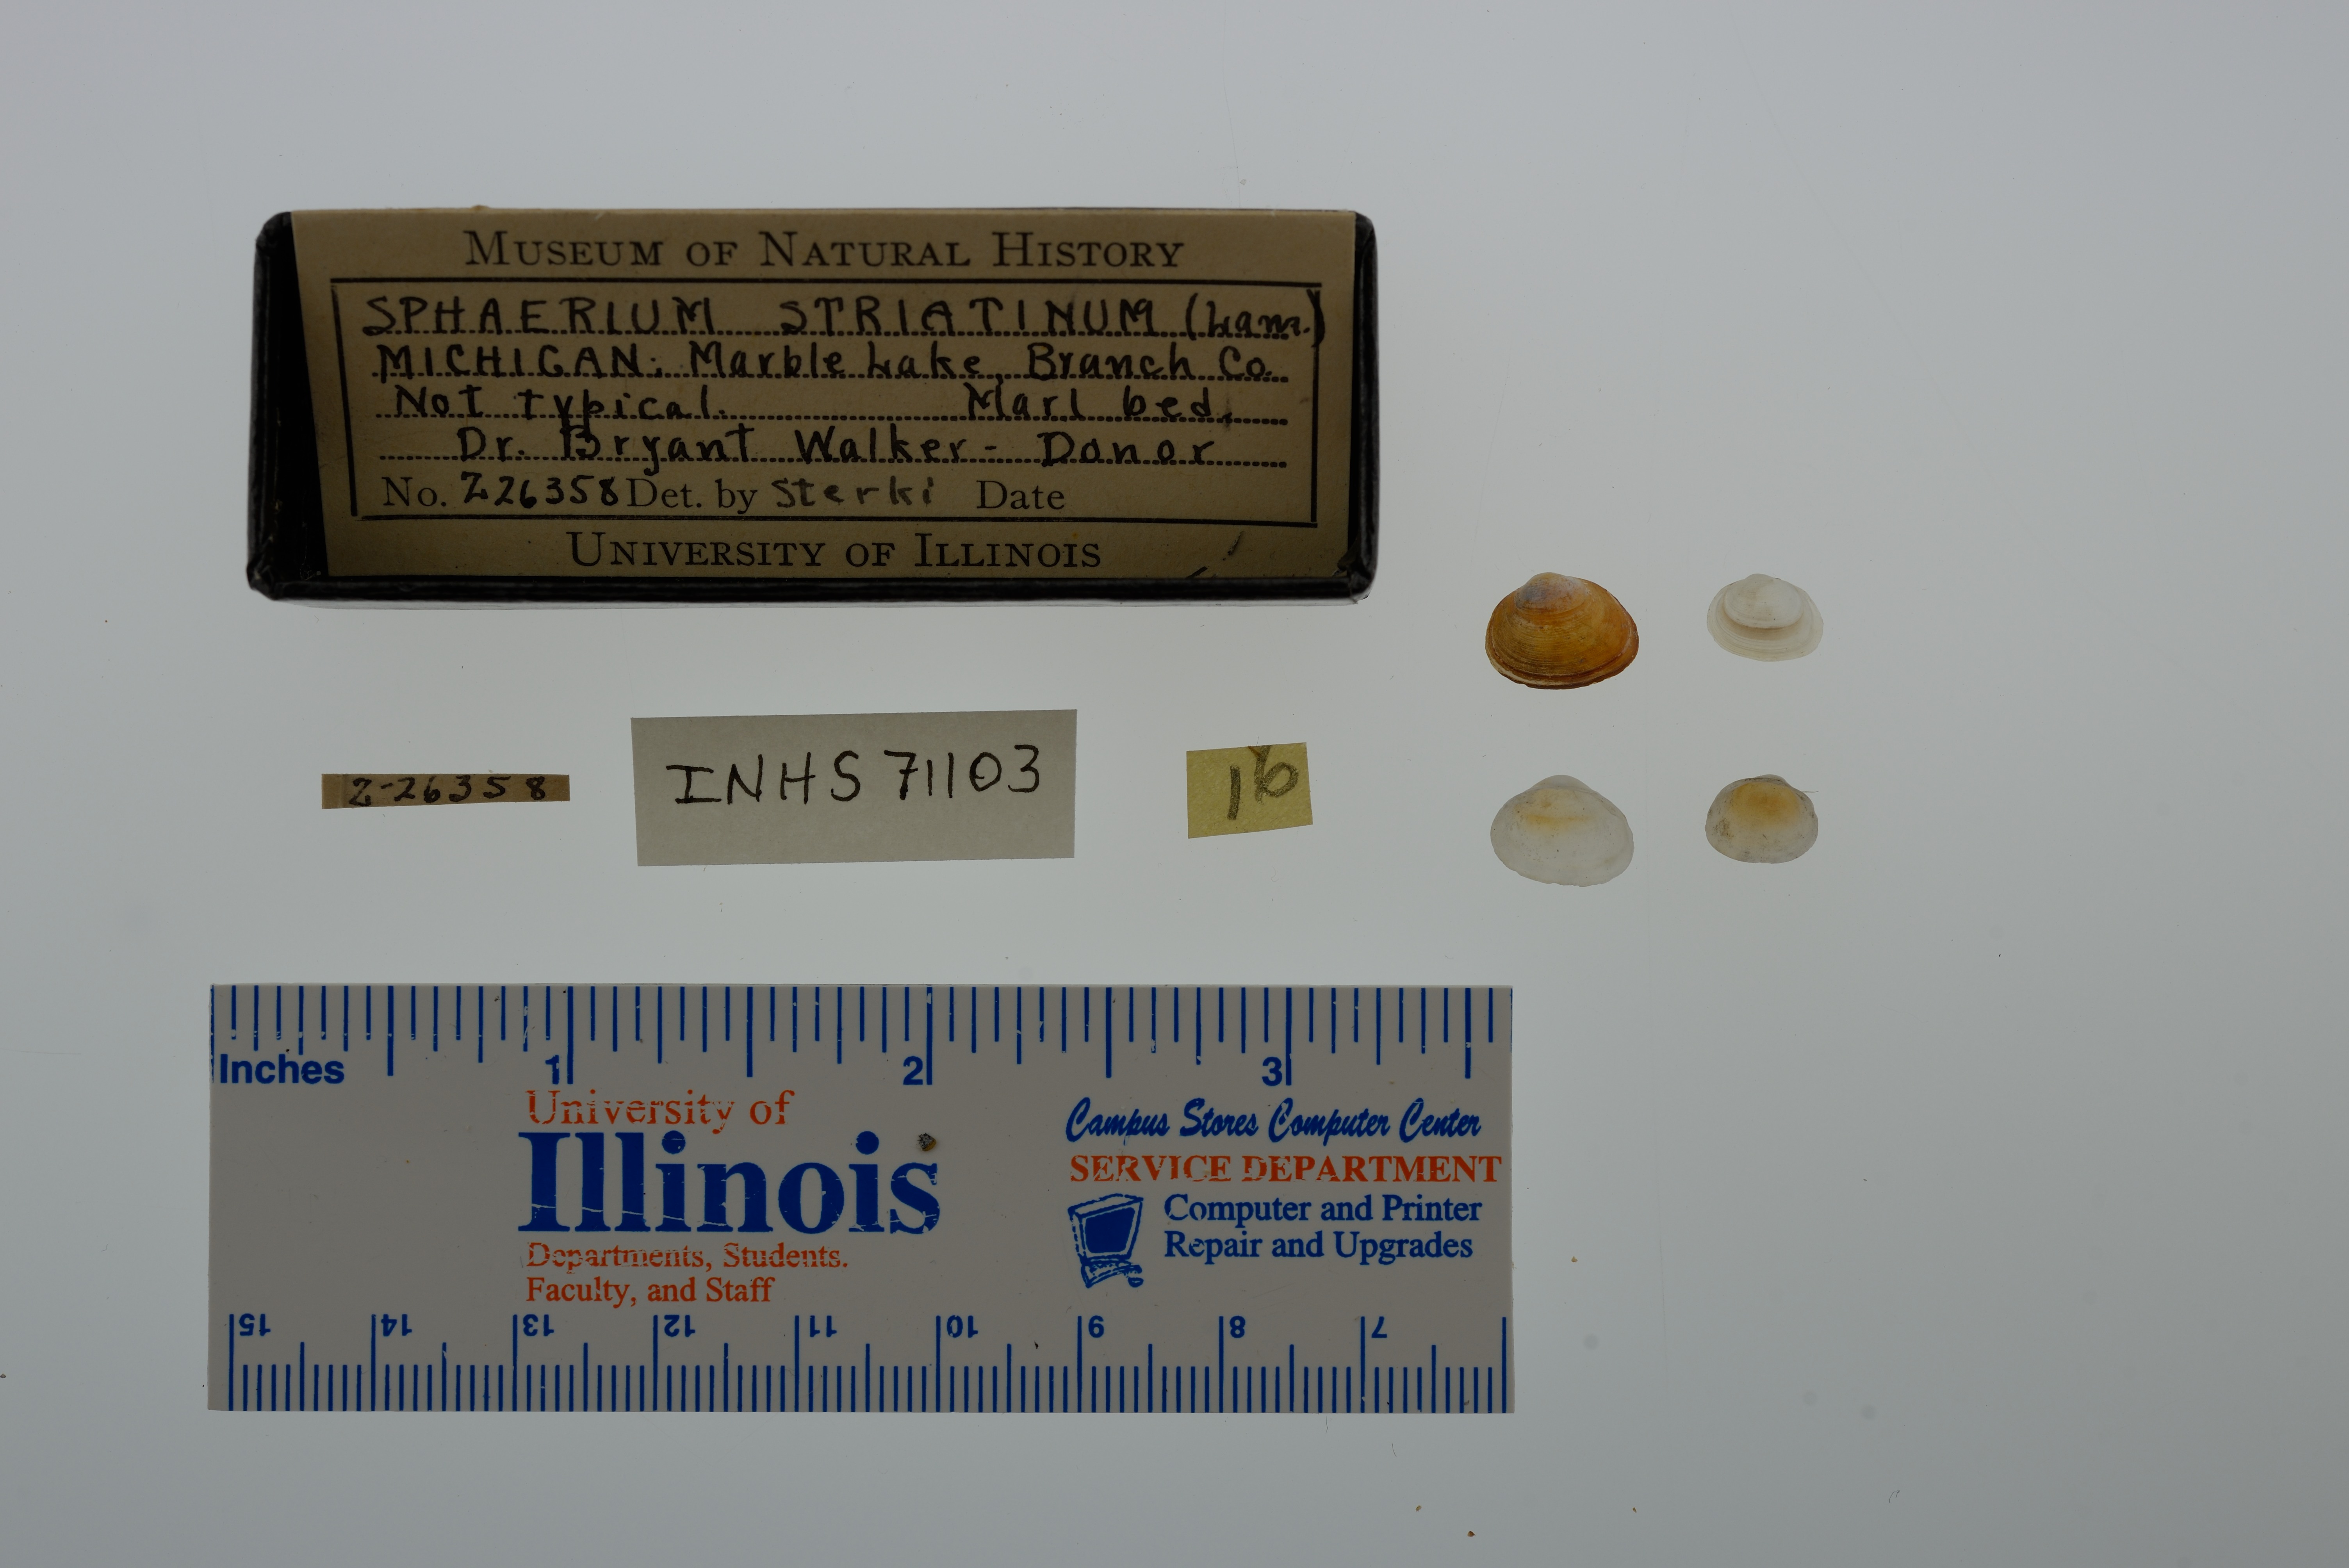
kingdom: Animalia
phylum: Mollusca
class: Bivalvia
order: Sphaeriida
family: Sphaeriidae
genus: Sphaerium
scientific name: Sphaerium striatinum
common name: Striated fingernailclam
